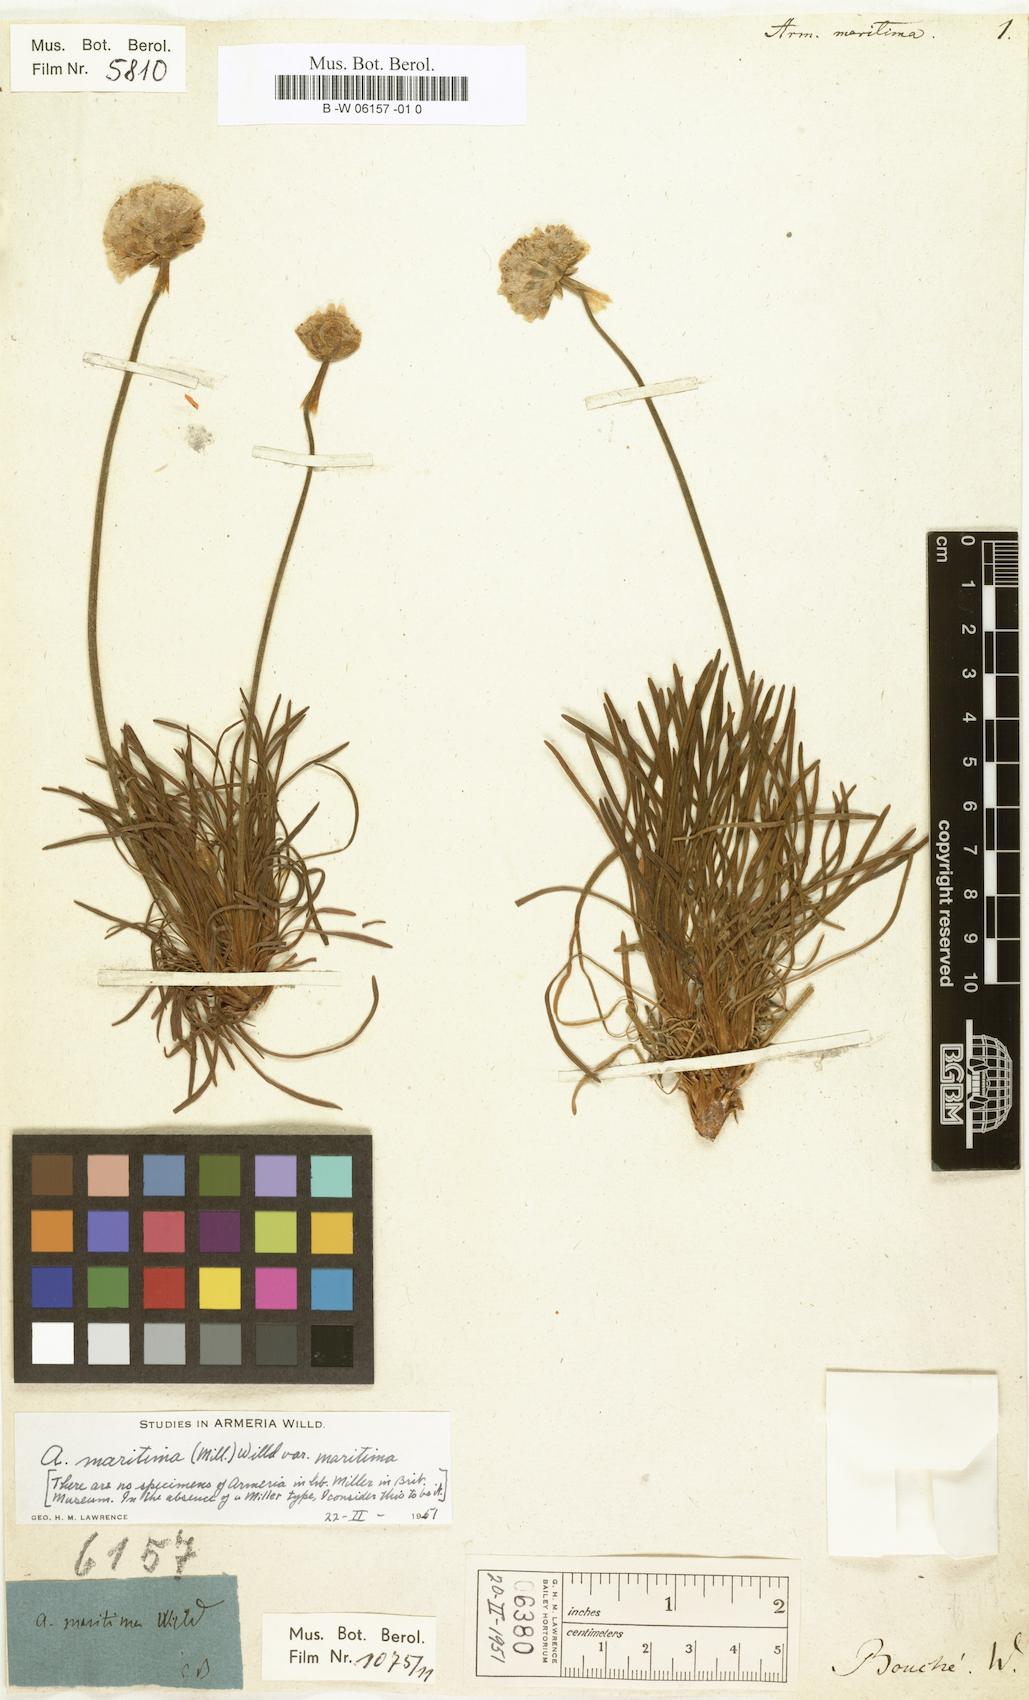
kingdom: Plantae
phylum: Tracheophyta
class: Magnoliopsida
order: Caryophyllales
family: Plumbaginaceae
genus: Armeria
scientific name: Armeria maritima
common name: Thrift
